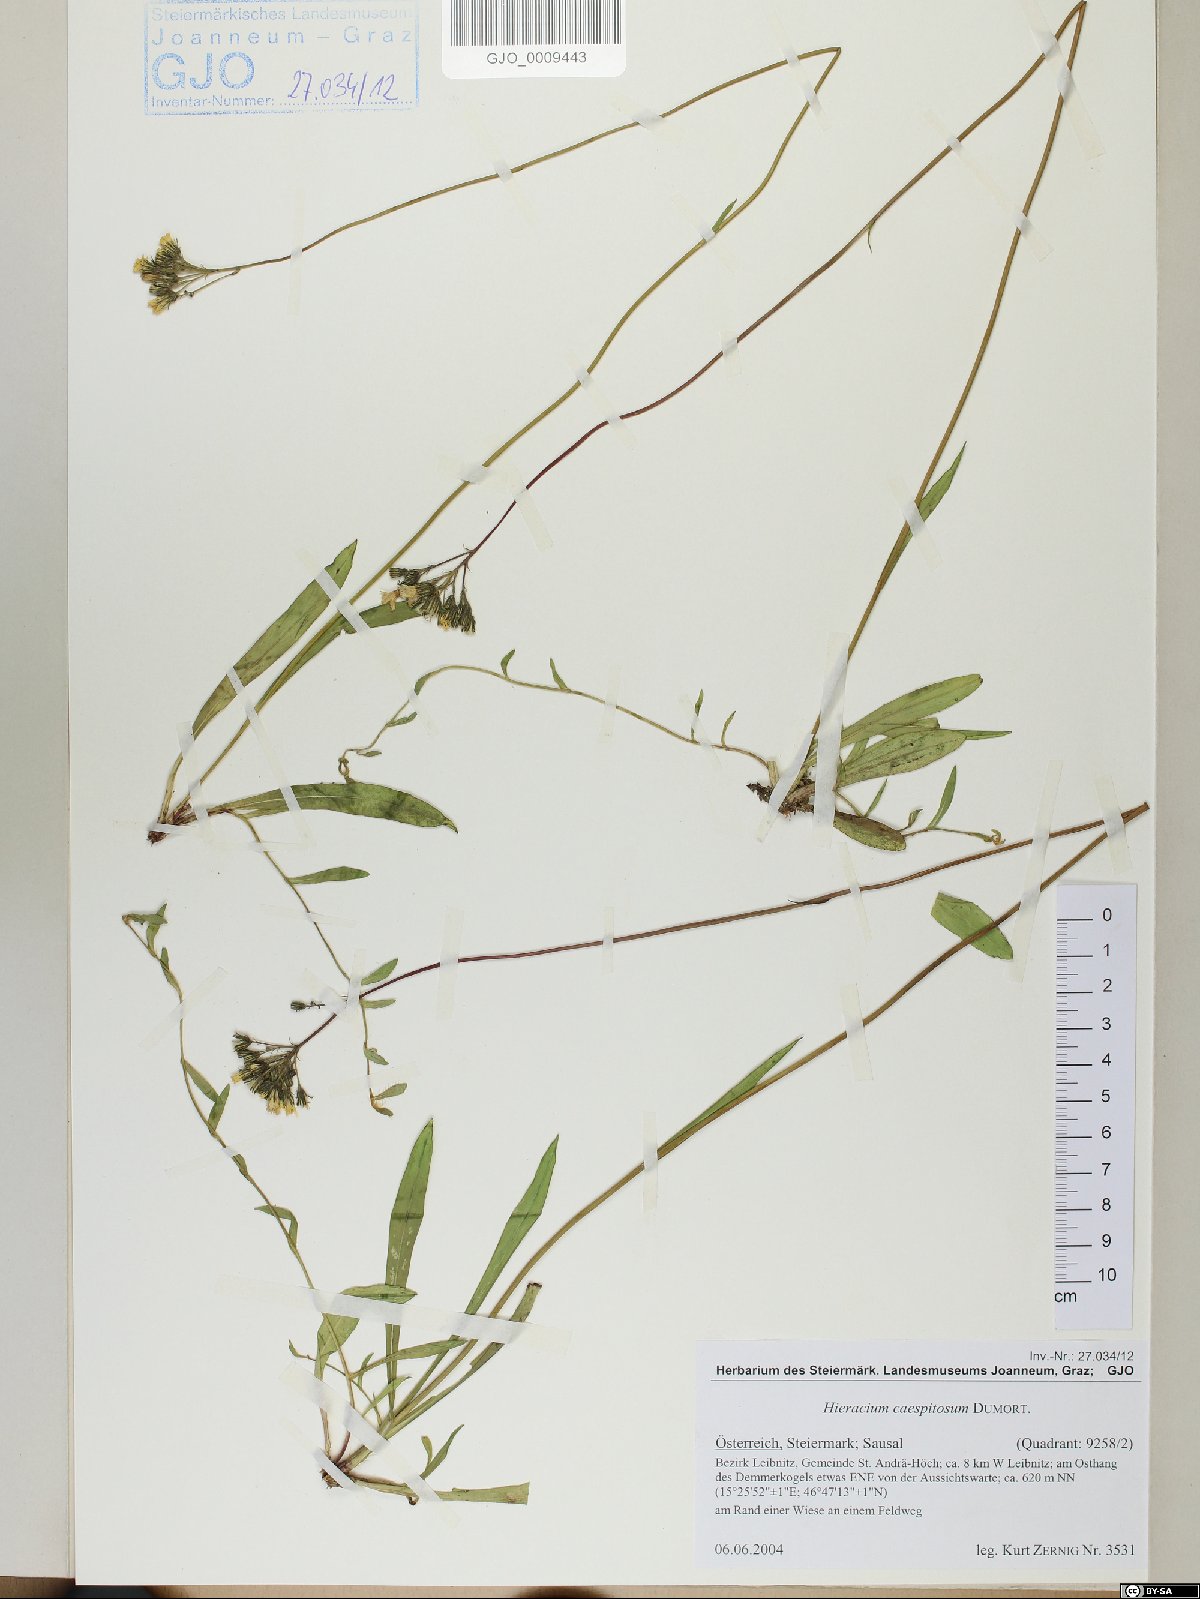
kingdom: Plantae
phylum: Tracheophyta
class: Magnoliopsida
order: Asterales
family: Asteraceae
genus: Pilosella
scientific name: Pilosella caespitosa
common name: Yellow fox-and-cubs
